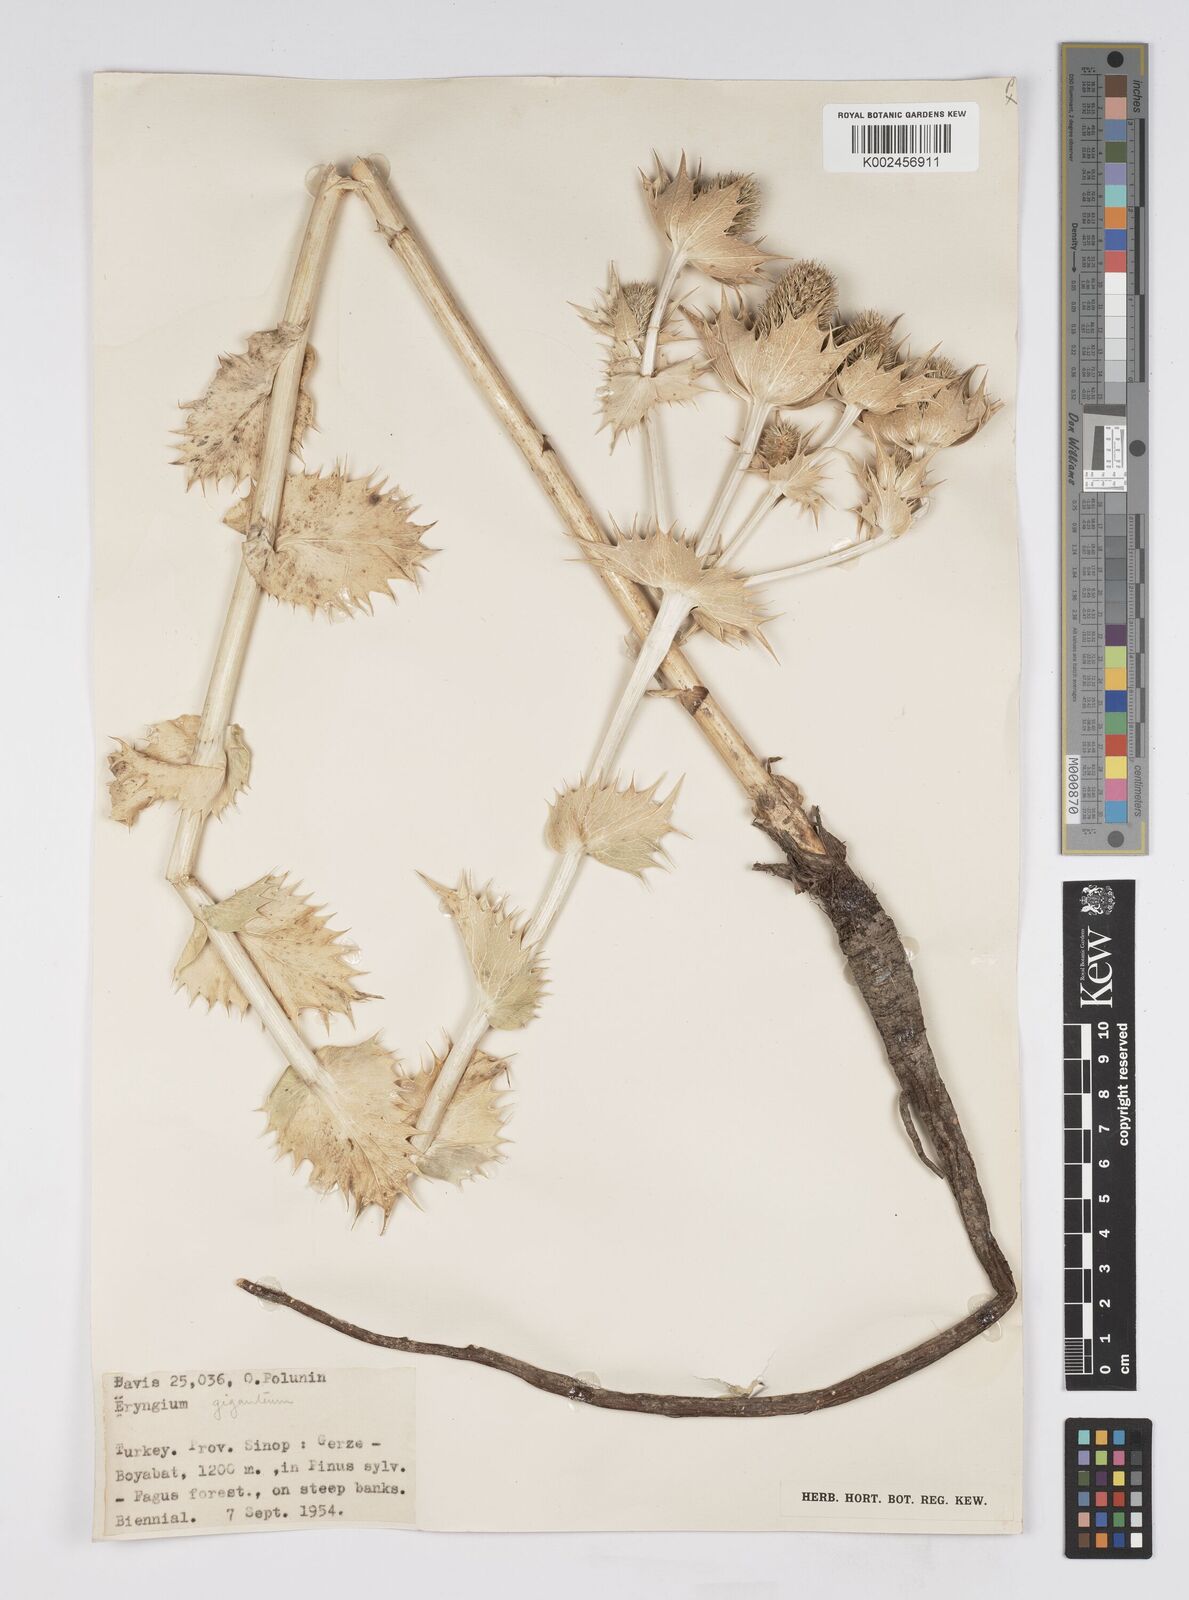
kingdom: Plantae
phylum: Tracheophyta
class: Magnoliopsida
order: Apiales
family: Apiaceae
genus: Eryngium
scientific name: Eryngium giganteum
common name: Tall eryngo
